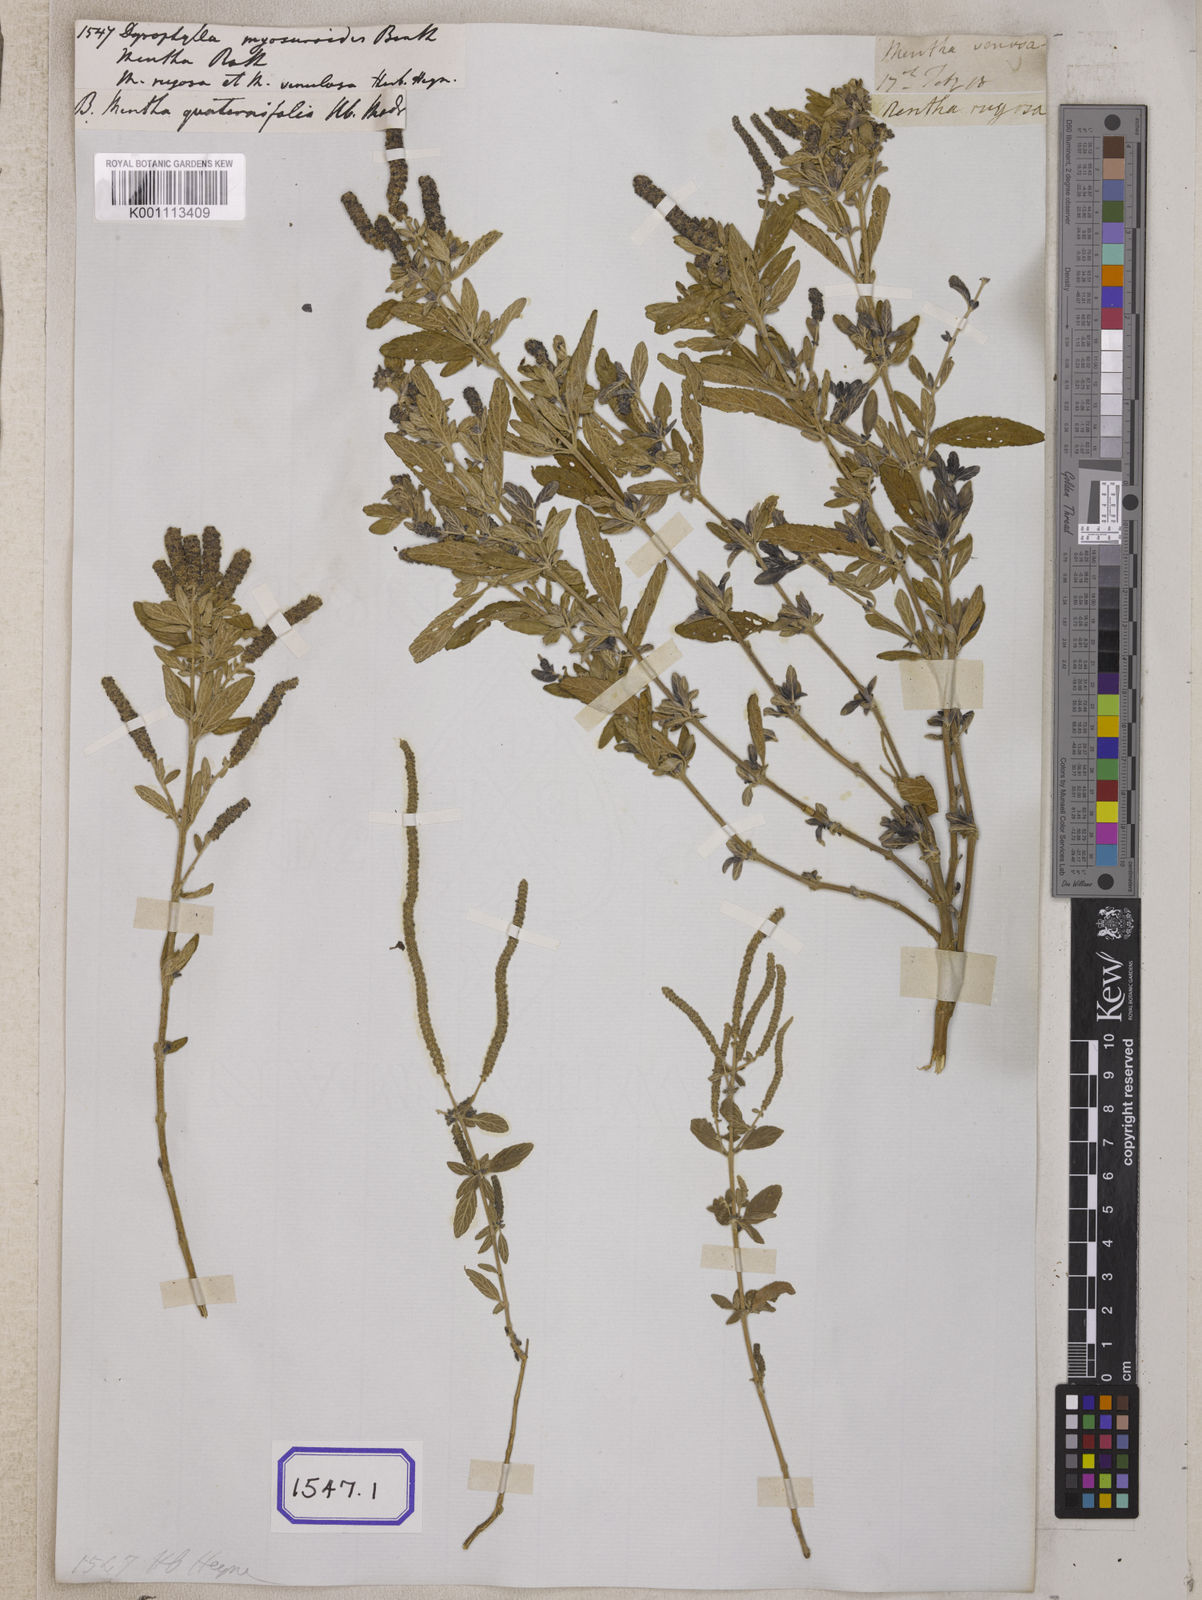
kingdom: Plantae
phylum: Tracheophyta
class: Magnoliopsida
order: Lamiales
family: Lamiaceae
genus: Pogostemon
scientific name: Pogostemon myosuroides
